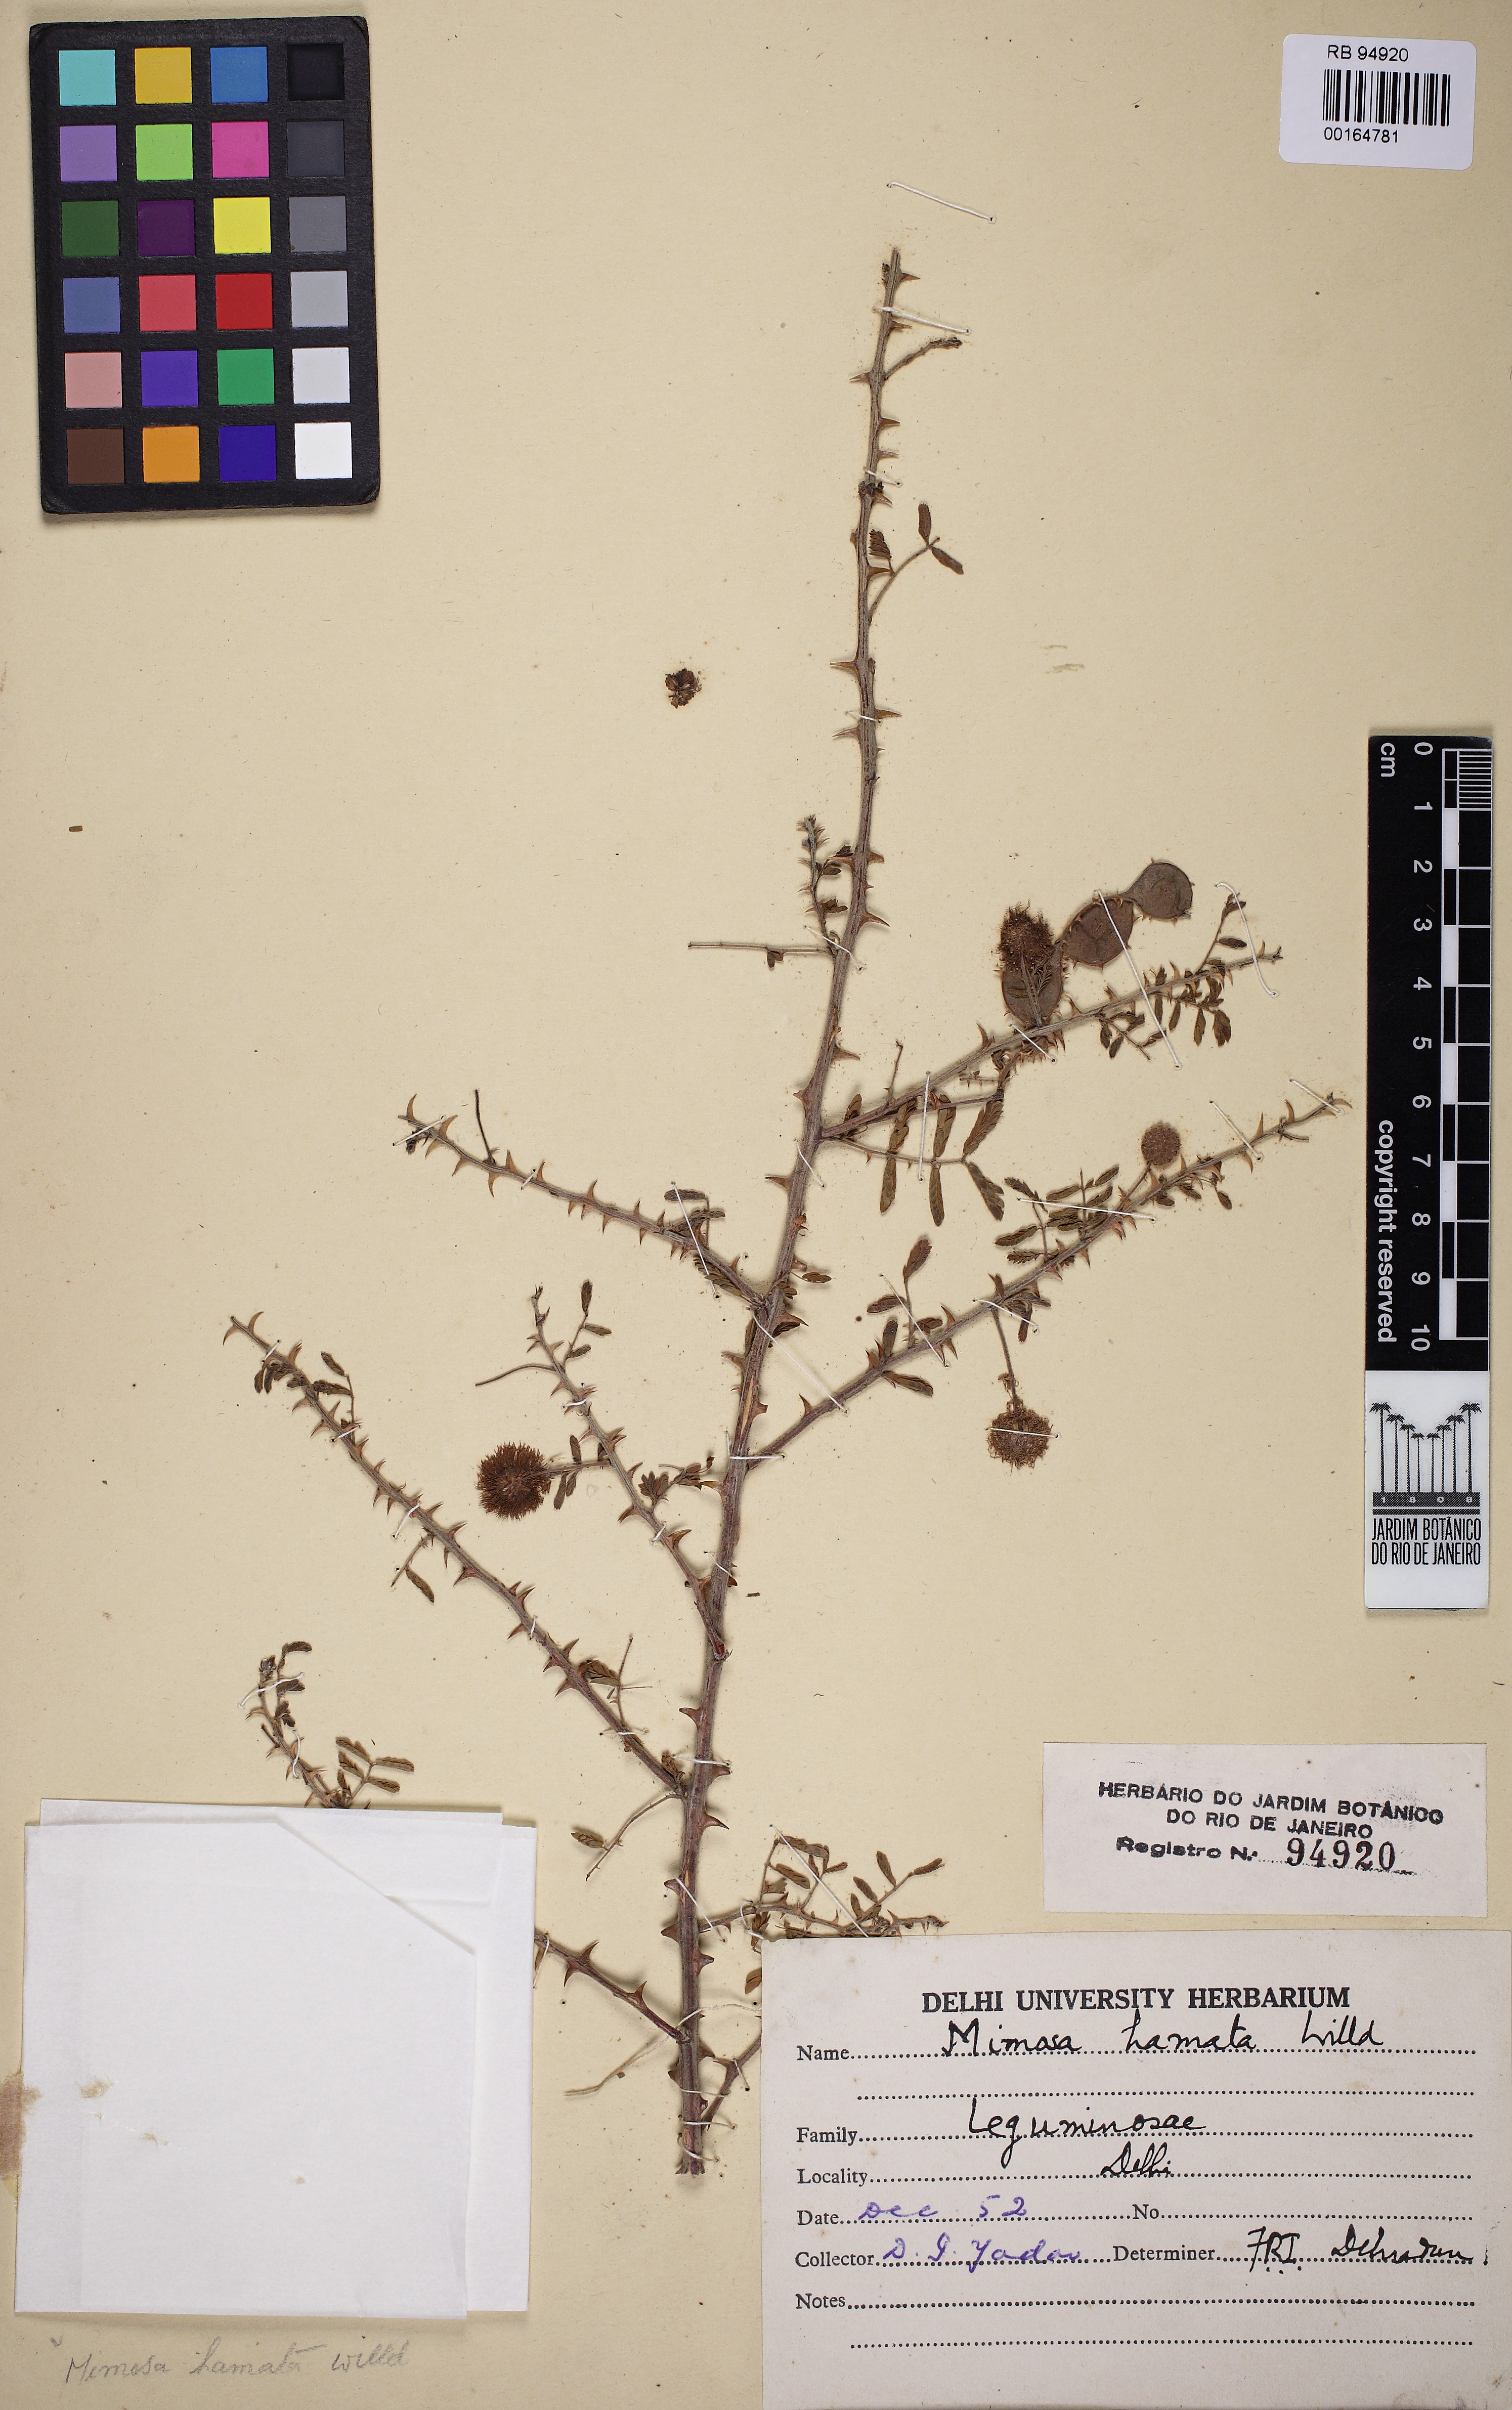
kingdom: Plantae
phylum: Tracheophyta
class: Magnoliopsida
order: Fabales
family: Fabaceae
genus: Mimosa
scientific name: Mimosa lanata
